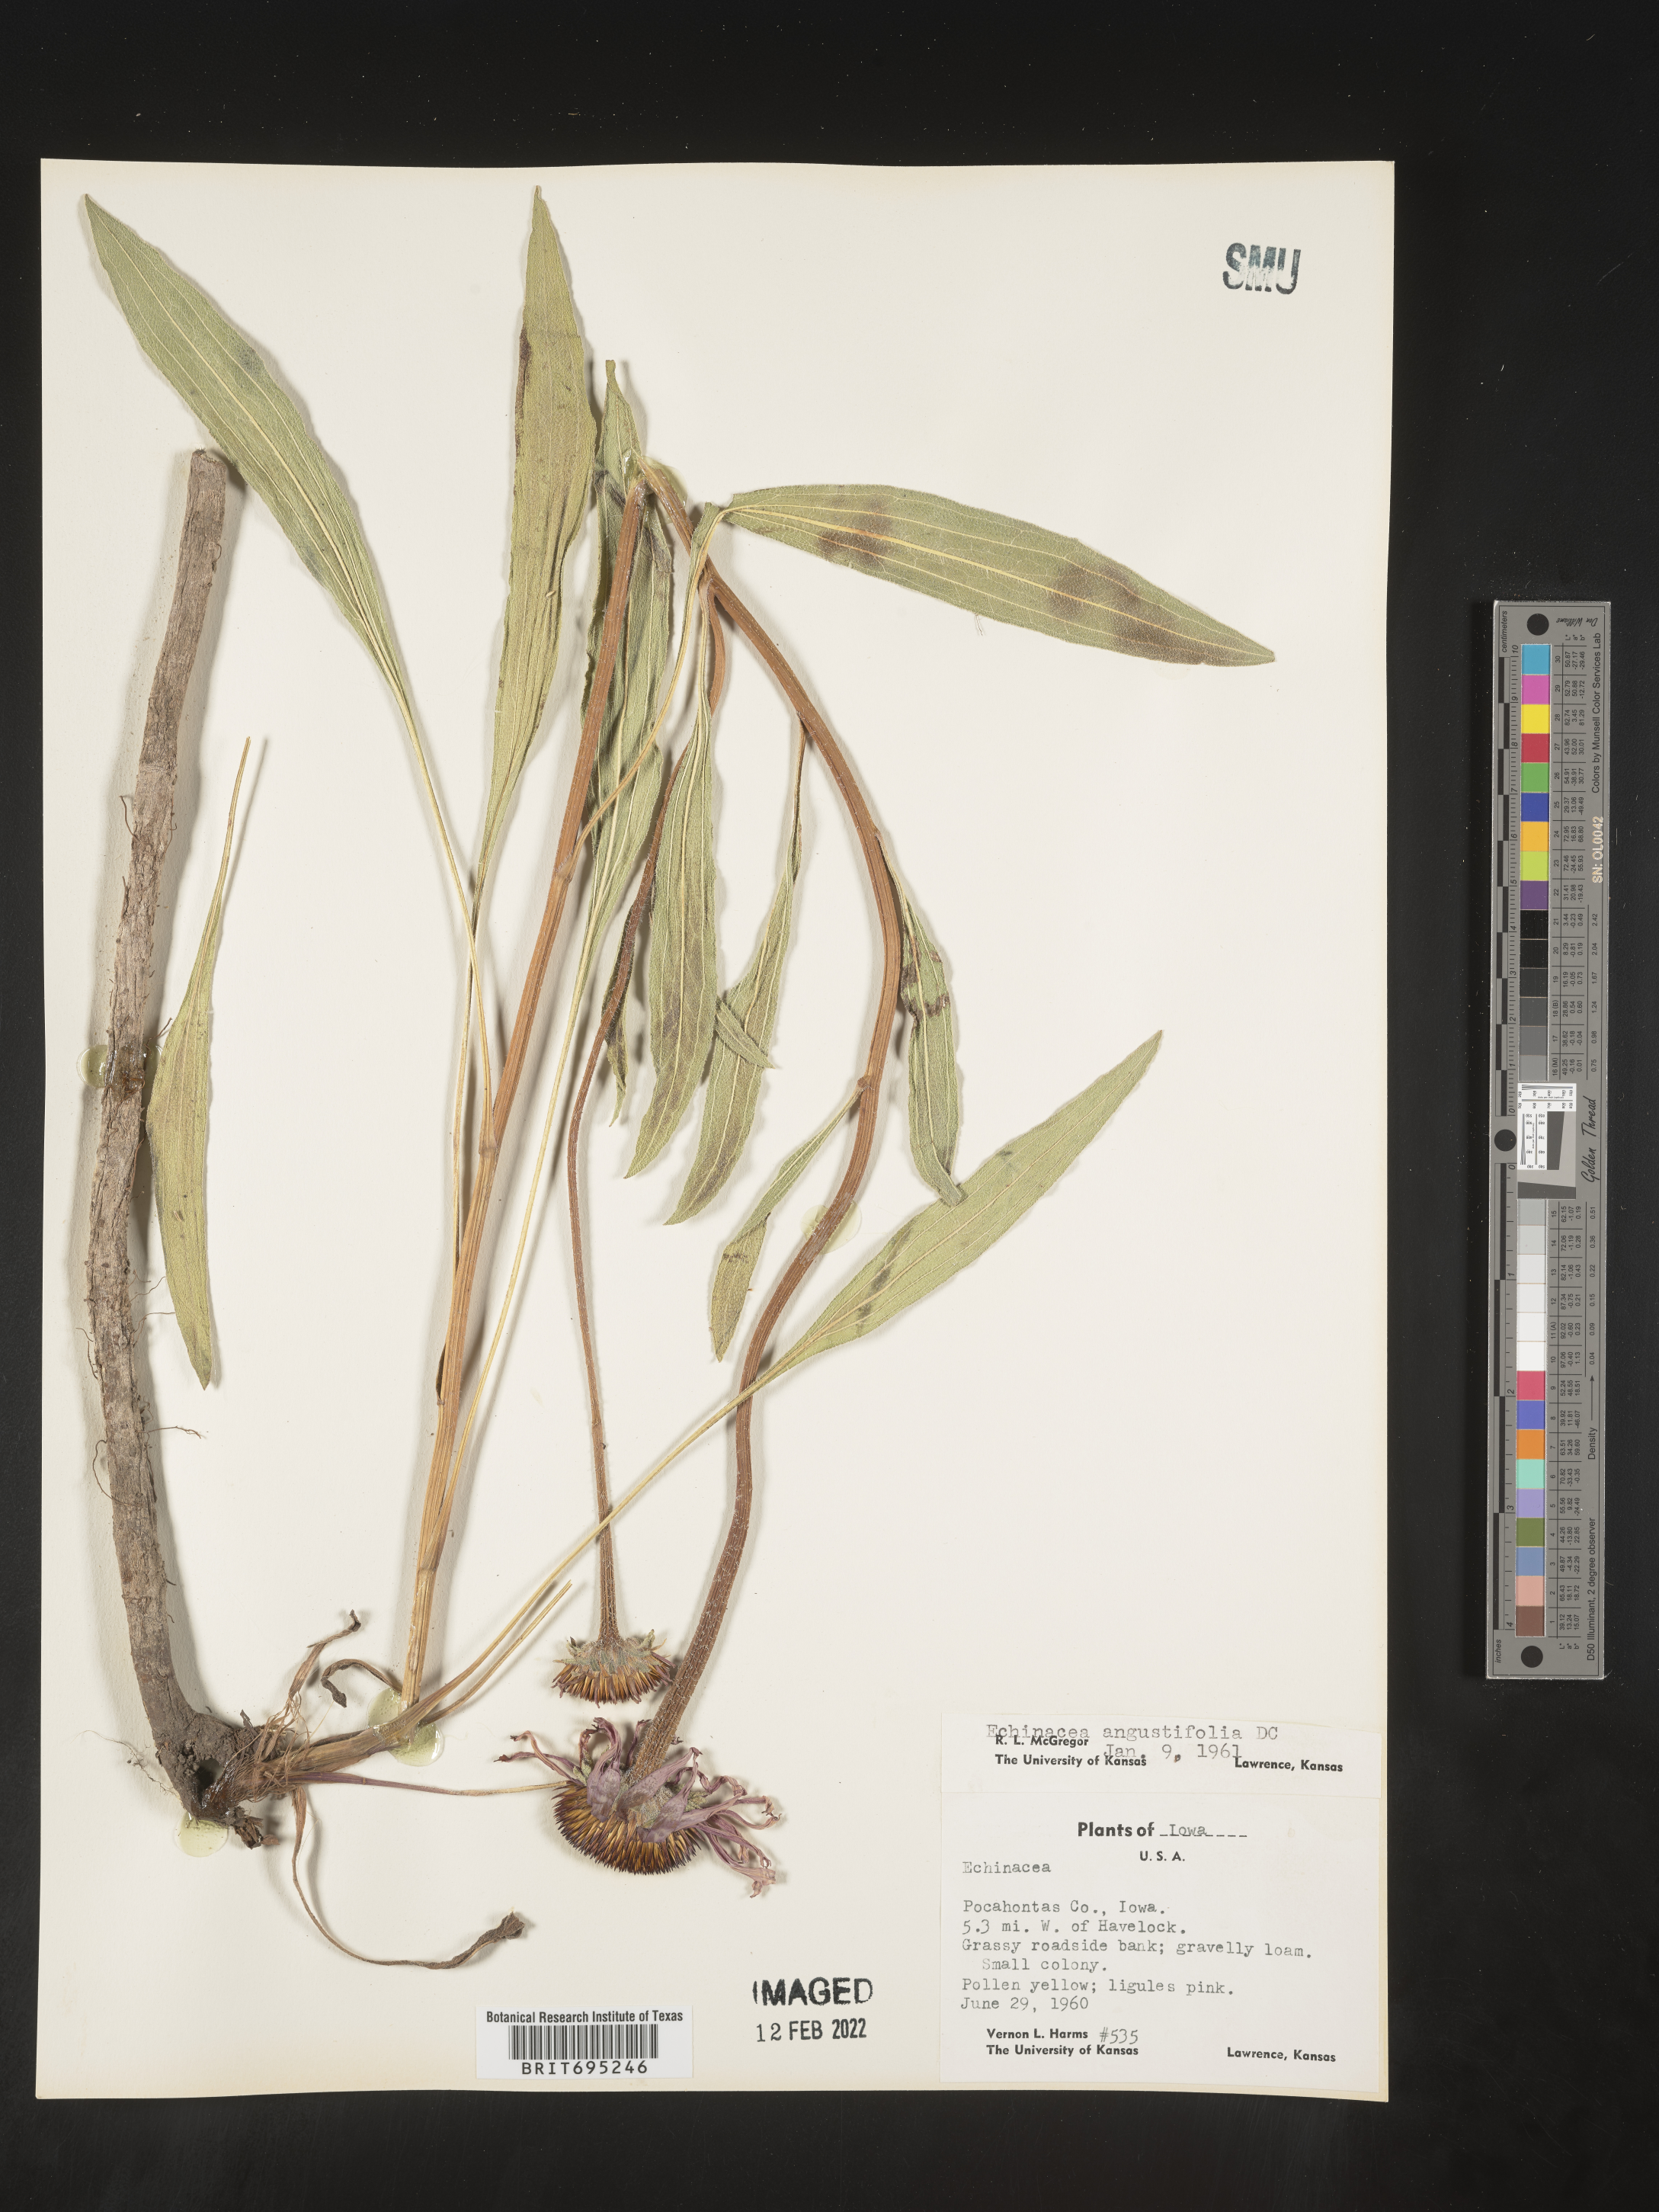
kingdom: Plantae
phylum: Tracheophyta
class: Magnoliopsida
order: Asterales
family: Asteraceae
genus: Echinacea
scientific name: Echinacea angustifolia
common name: Black-sampson echinacea
